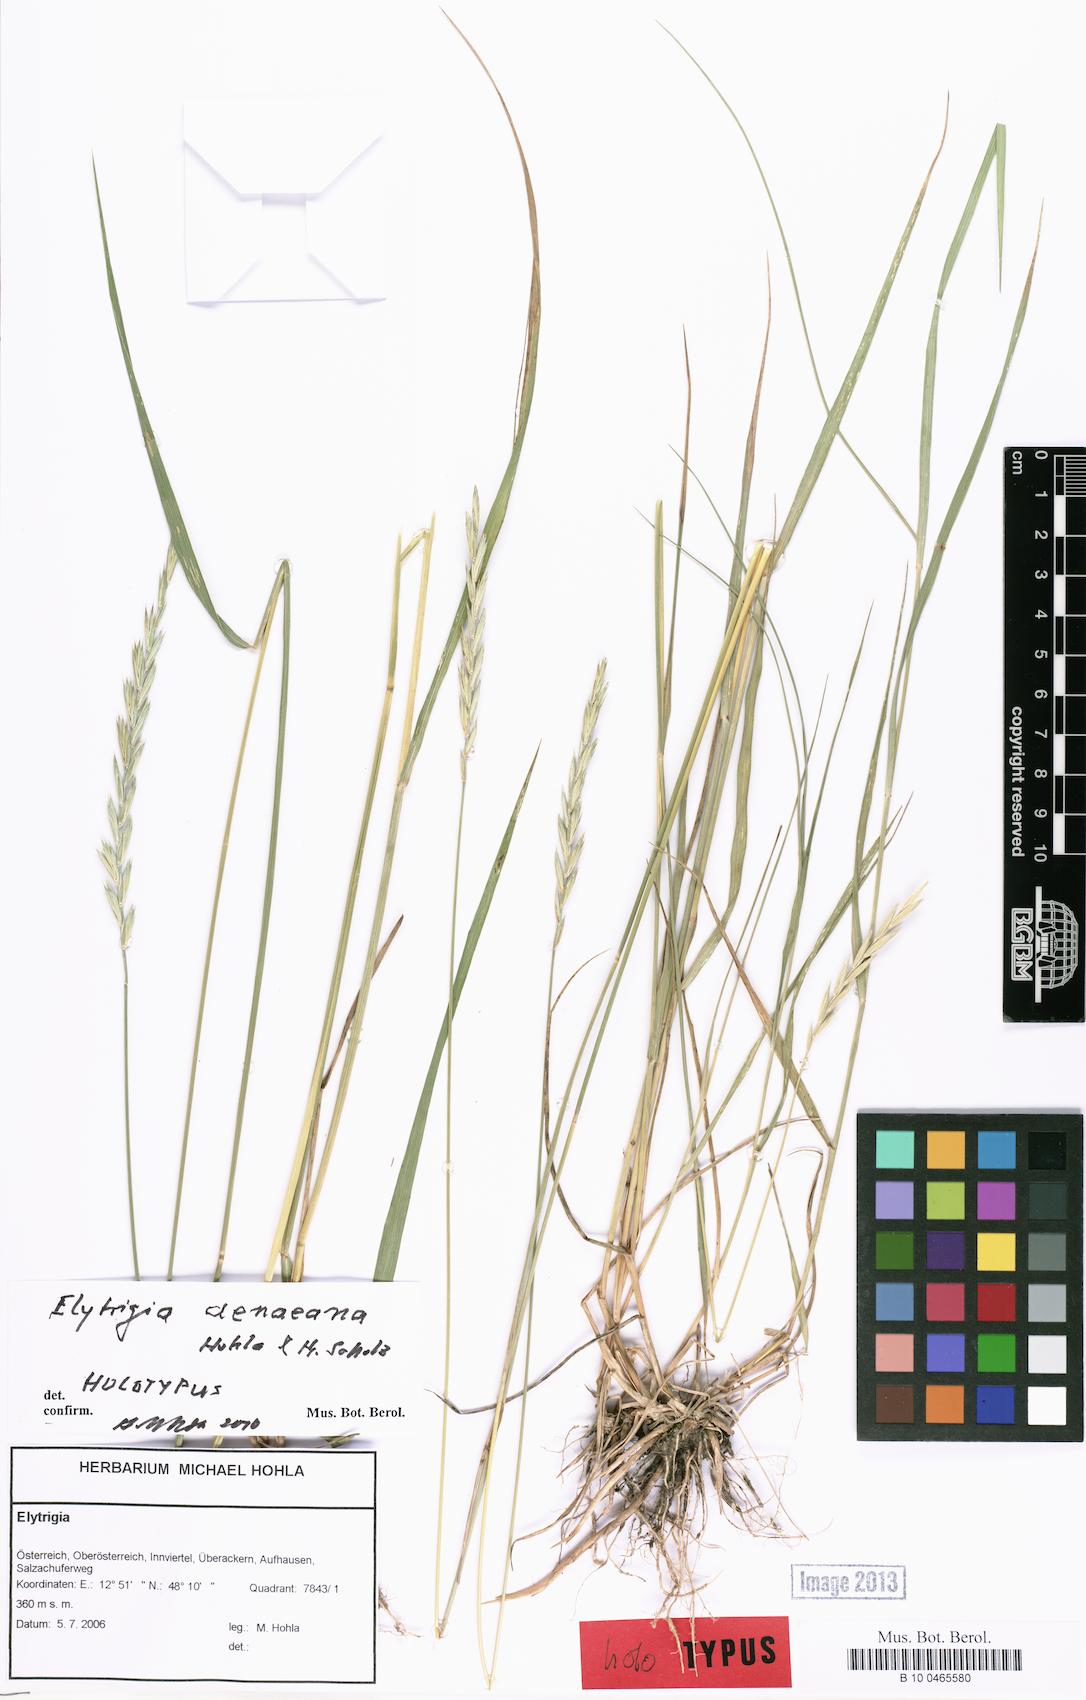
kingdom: Plantae
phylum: Tracheophyta
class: Liliopsida
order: Poales
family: Poaceae
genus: Elymus
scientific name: Elymus aenaeanus
